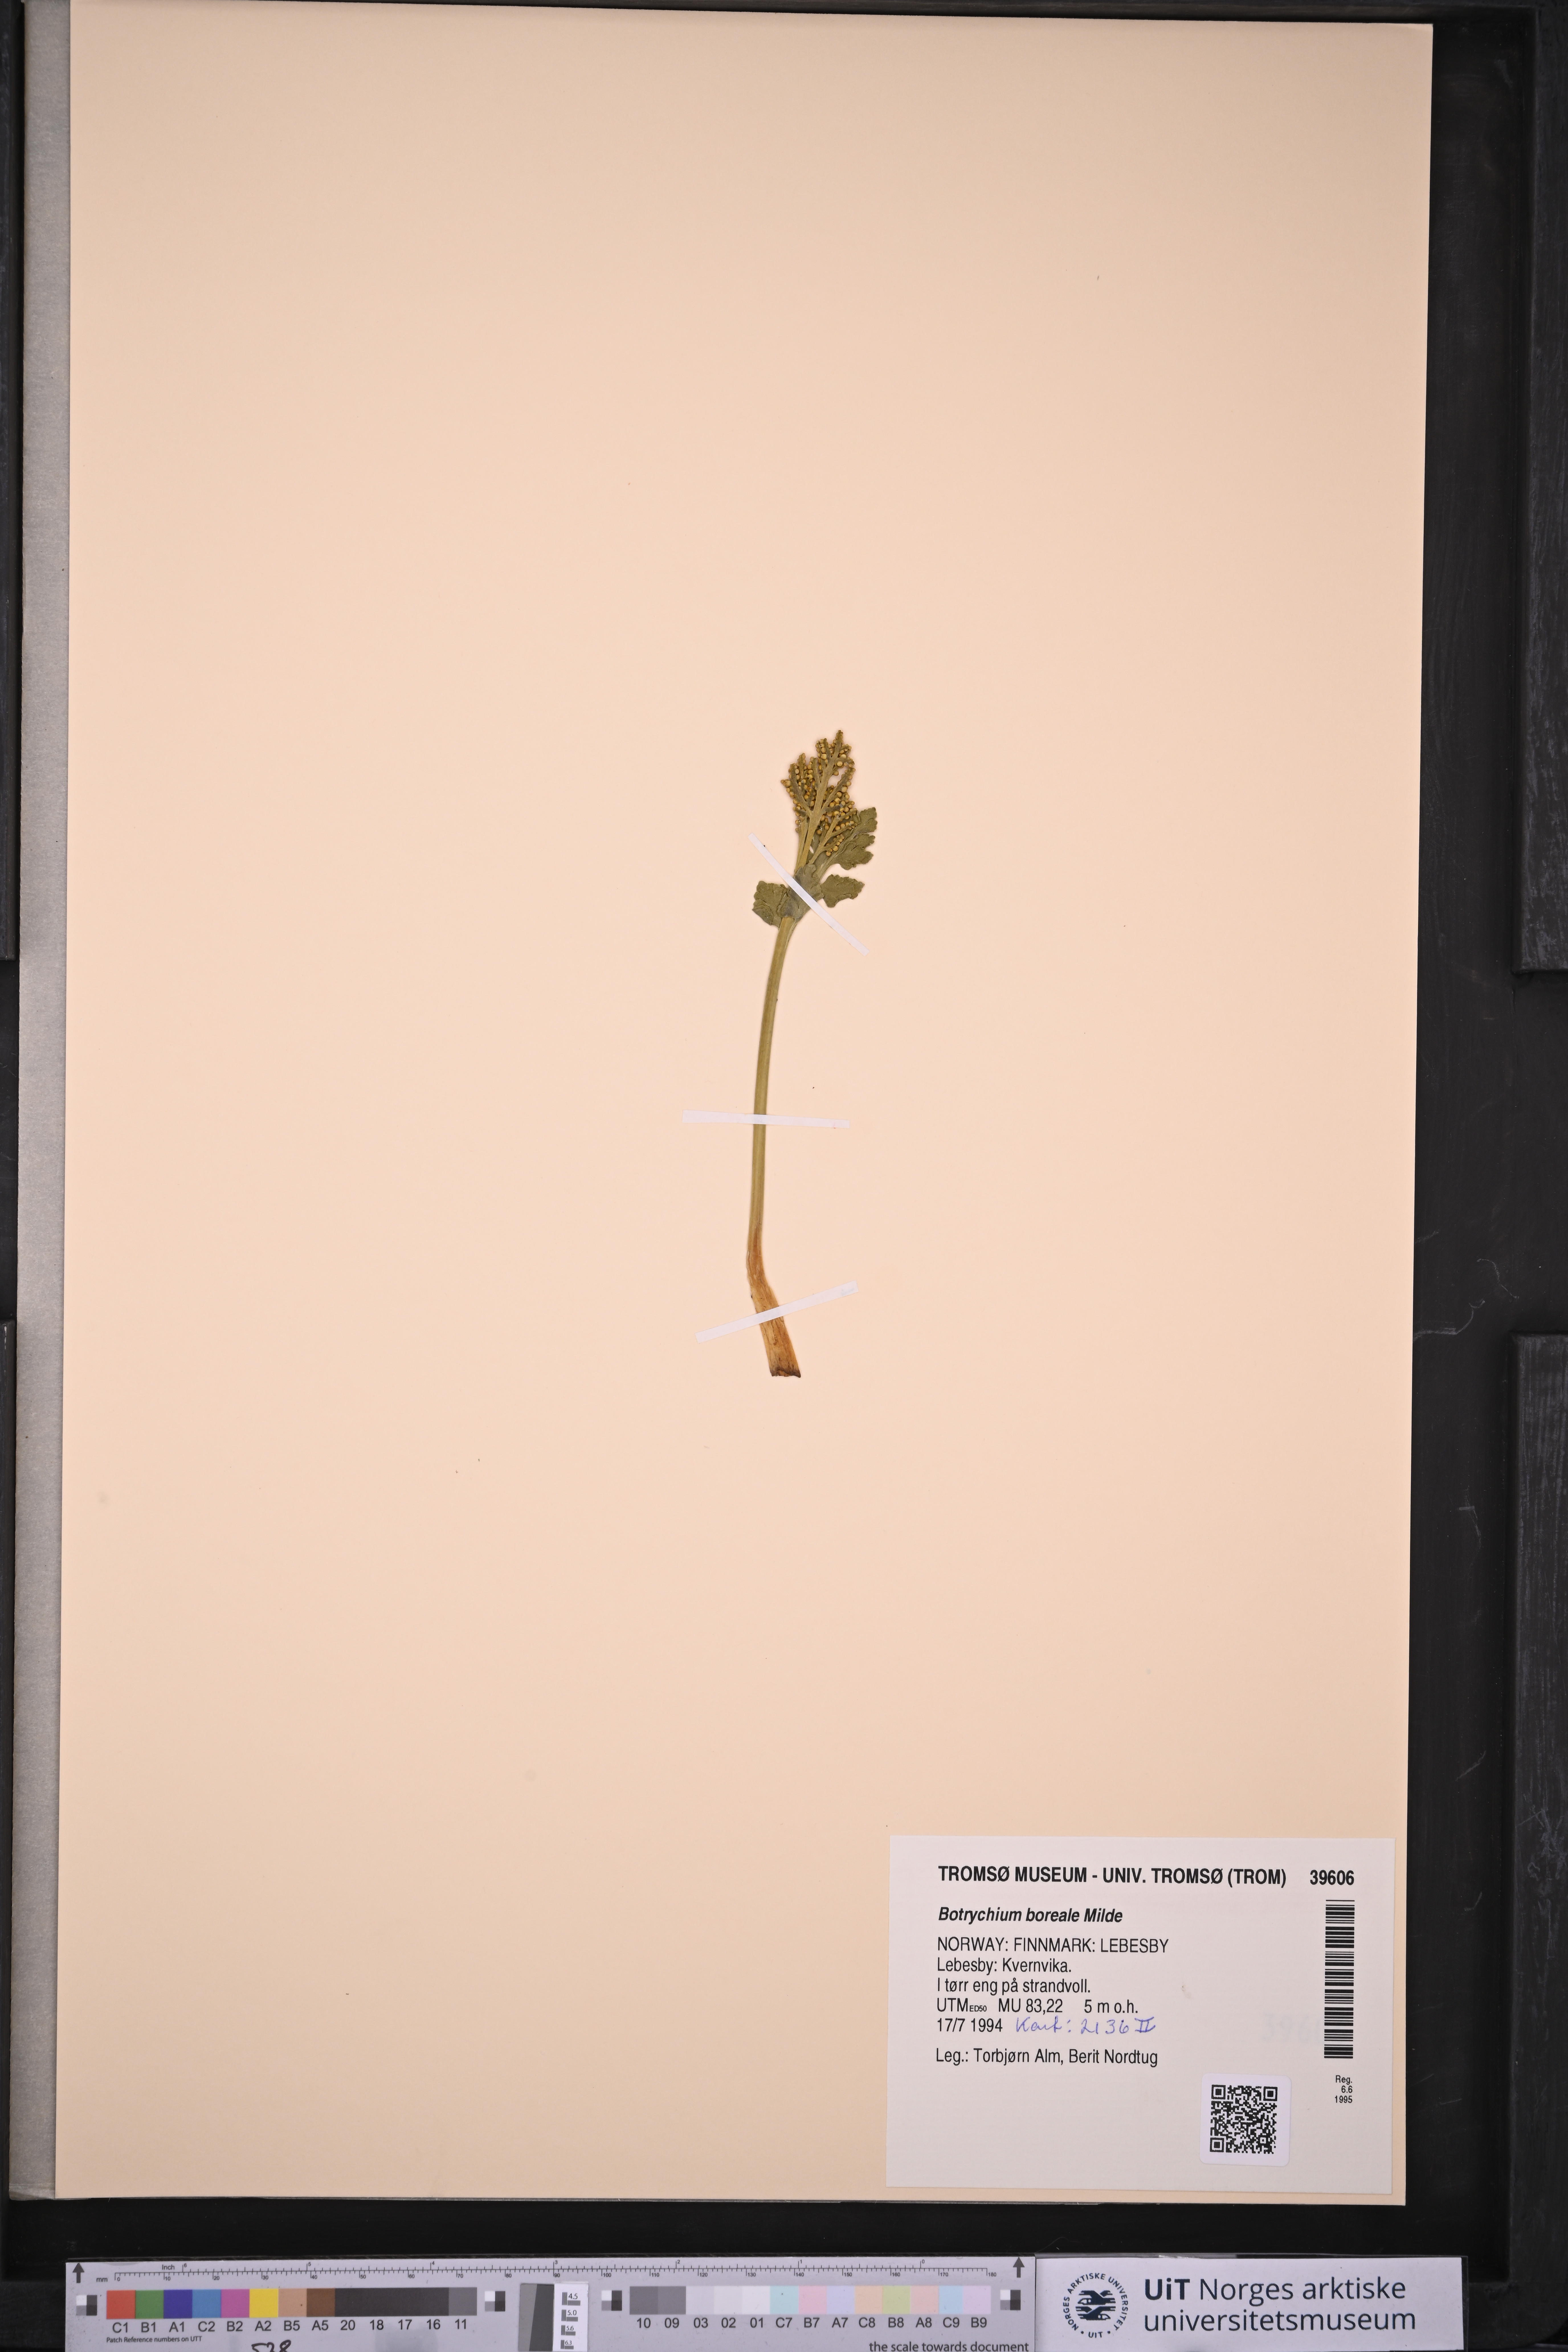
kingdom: Plantae
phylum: Tracheophyta
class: Polypodiopsida
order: Ophioglossales
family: Ophioglossaceae
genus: Botrychium
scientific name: Botrychium boreale
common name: Boreal moonwort
